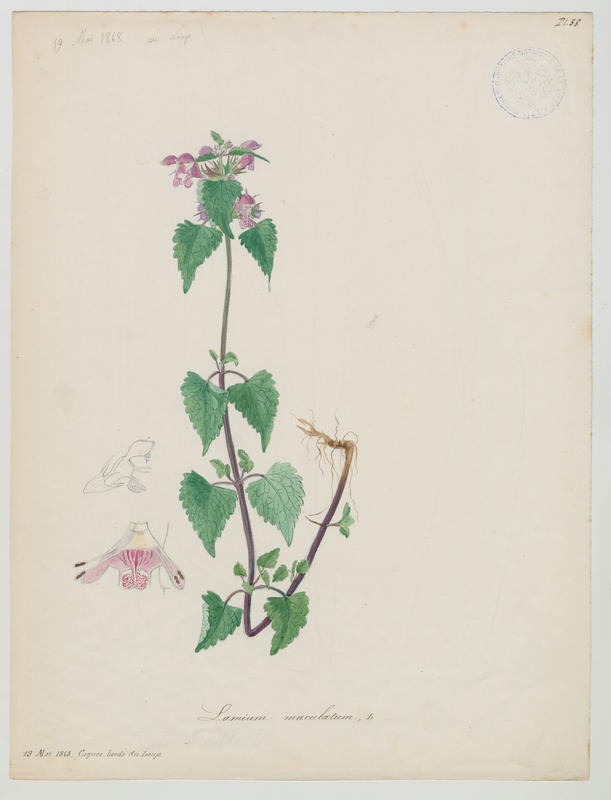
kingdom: Plantae
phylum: Tracheophyta
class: Magnoliopsida
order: Lamiales
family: Lamiaceae
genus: Lamium
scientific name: Lamium maculatum
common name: Spotted dead-nettle
